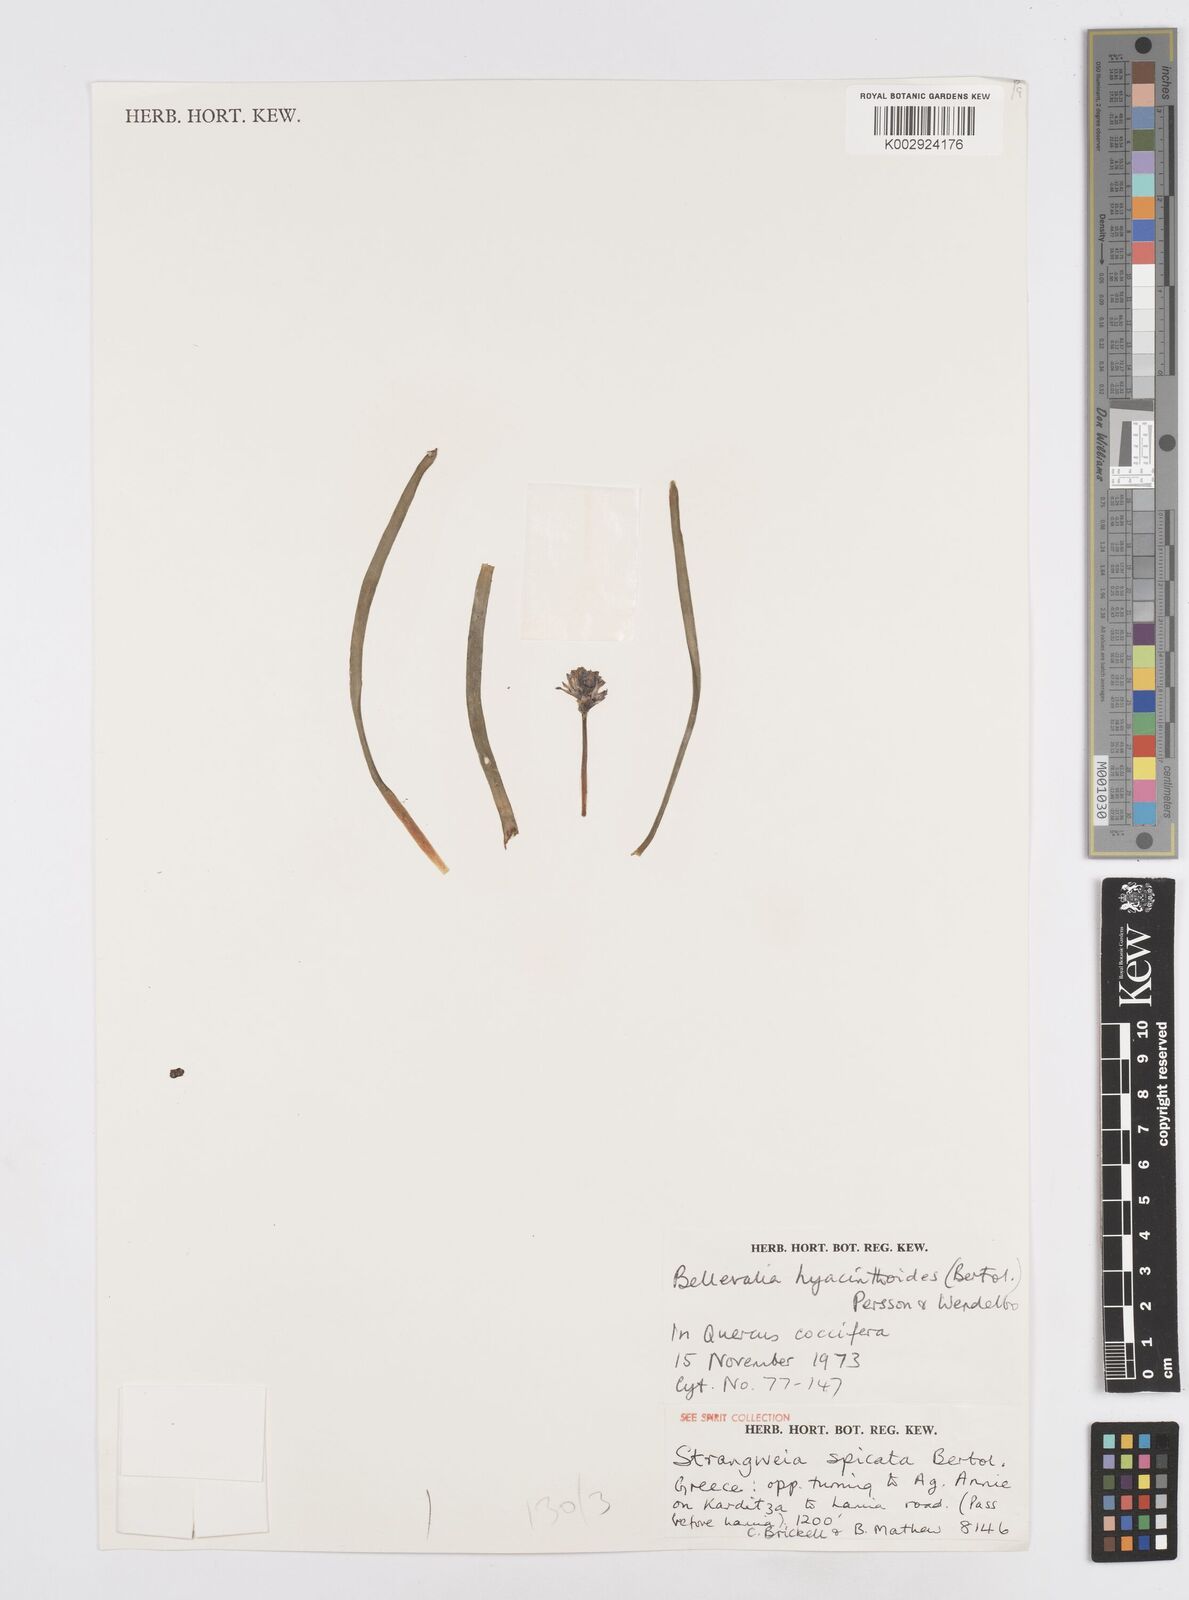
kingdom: Plantae
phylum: Tracheophyta
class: Liliopsida
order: Asparagales
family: Asparagaceae
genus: Bellevalia
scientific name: Bellevalia hyacinthoides
